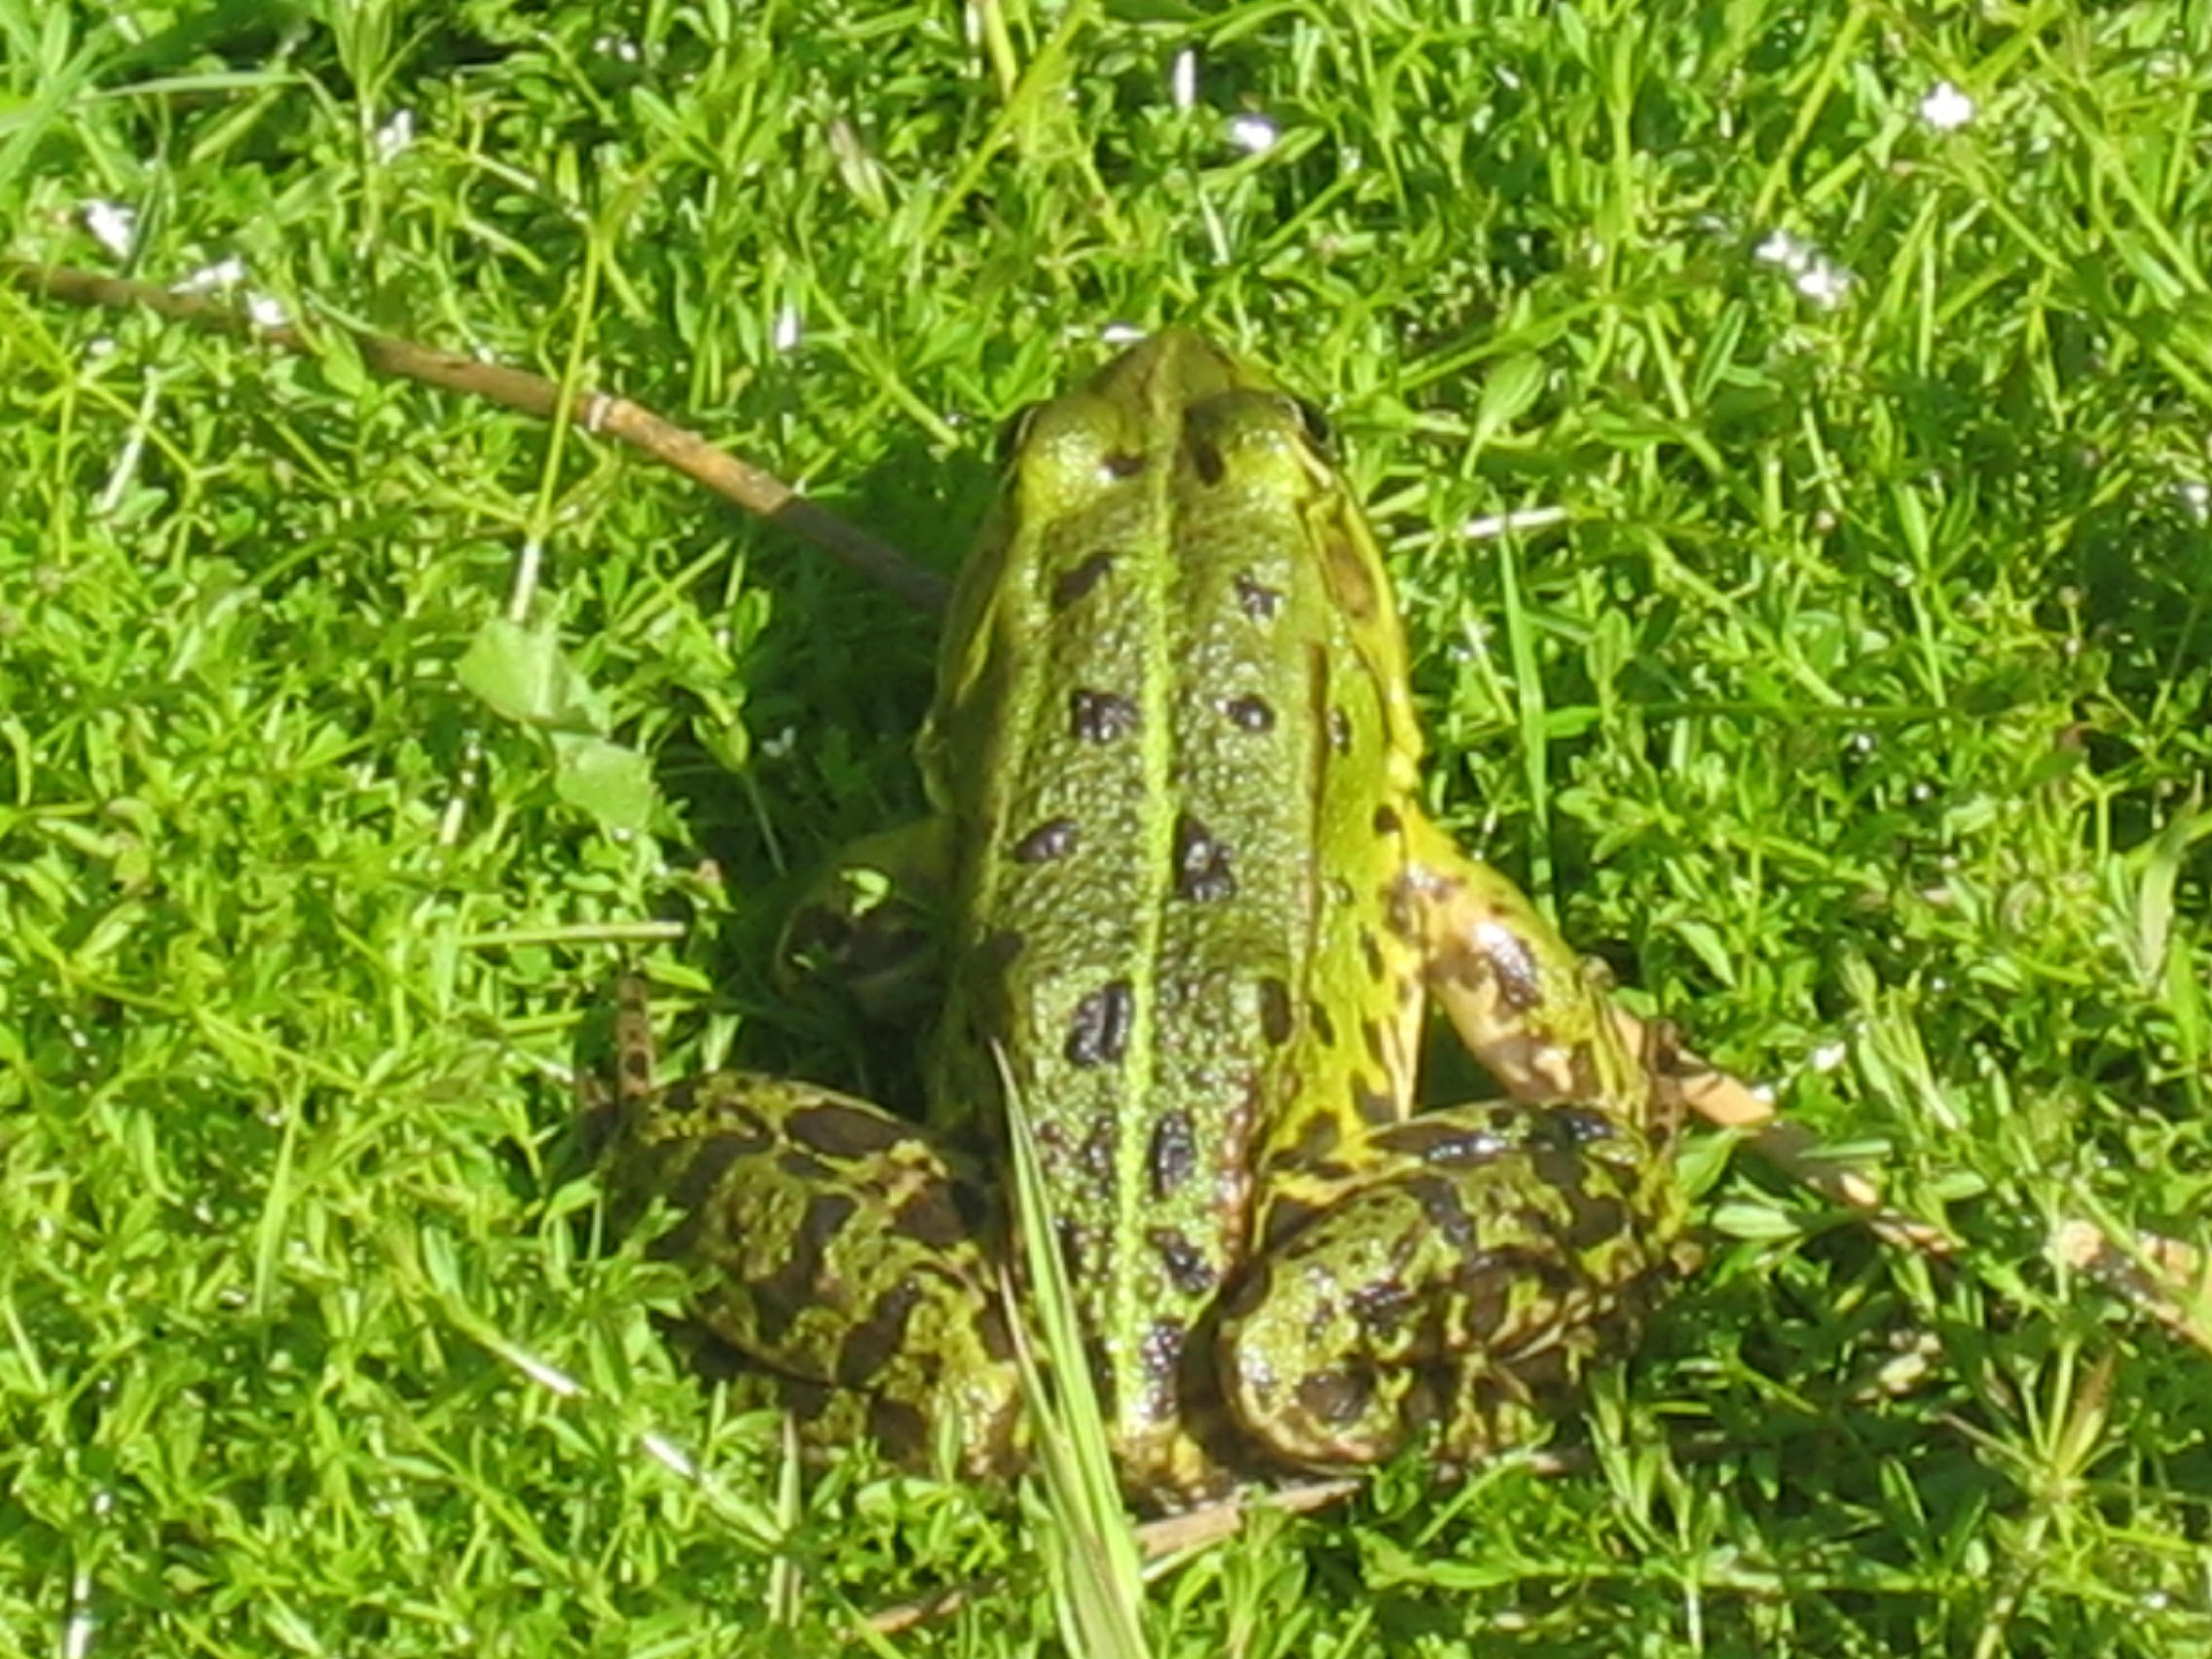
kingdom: Animalia
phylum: Chordata
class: Amphibia
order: Anura
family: Ranidae
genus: Pelophylax
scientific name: Pelophylax
